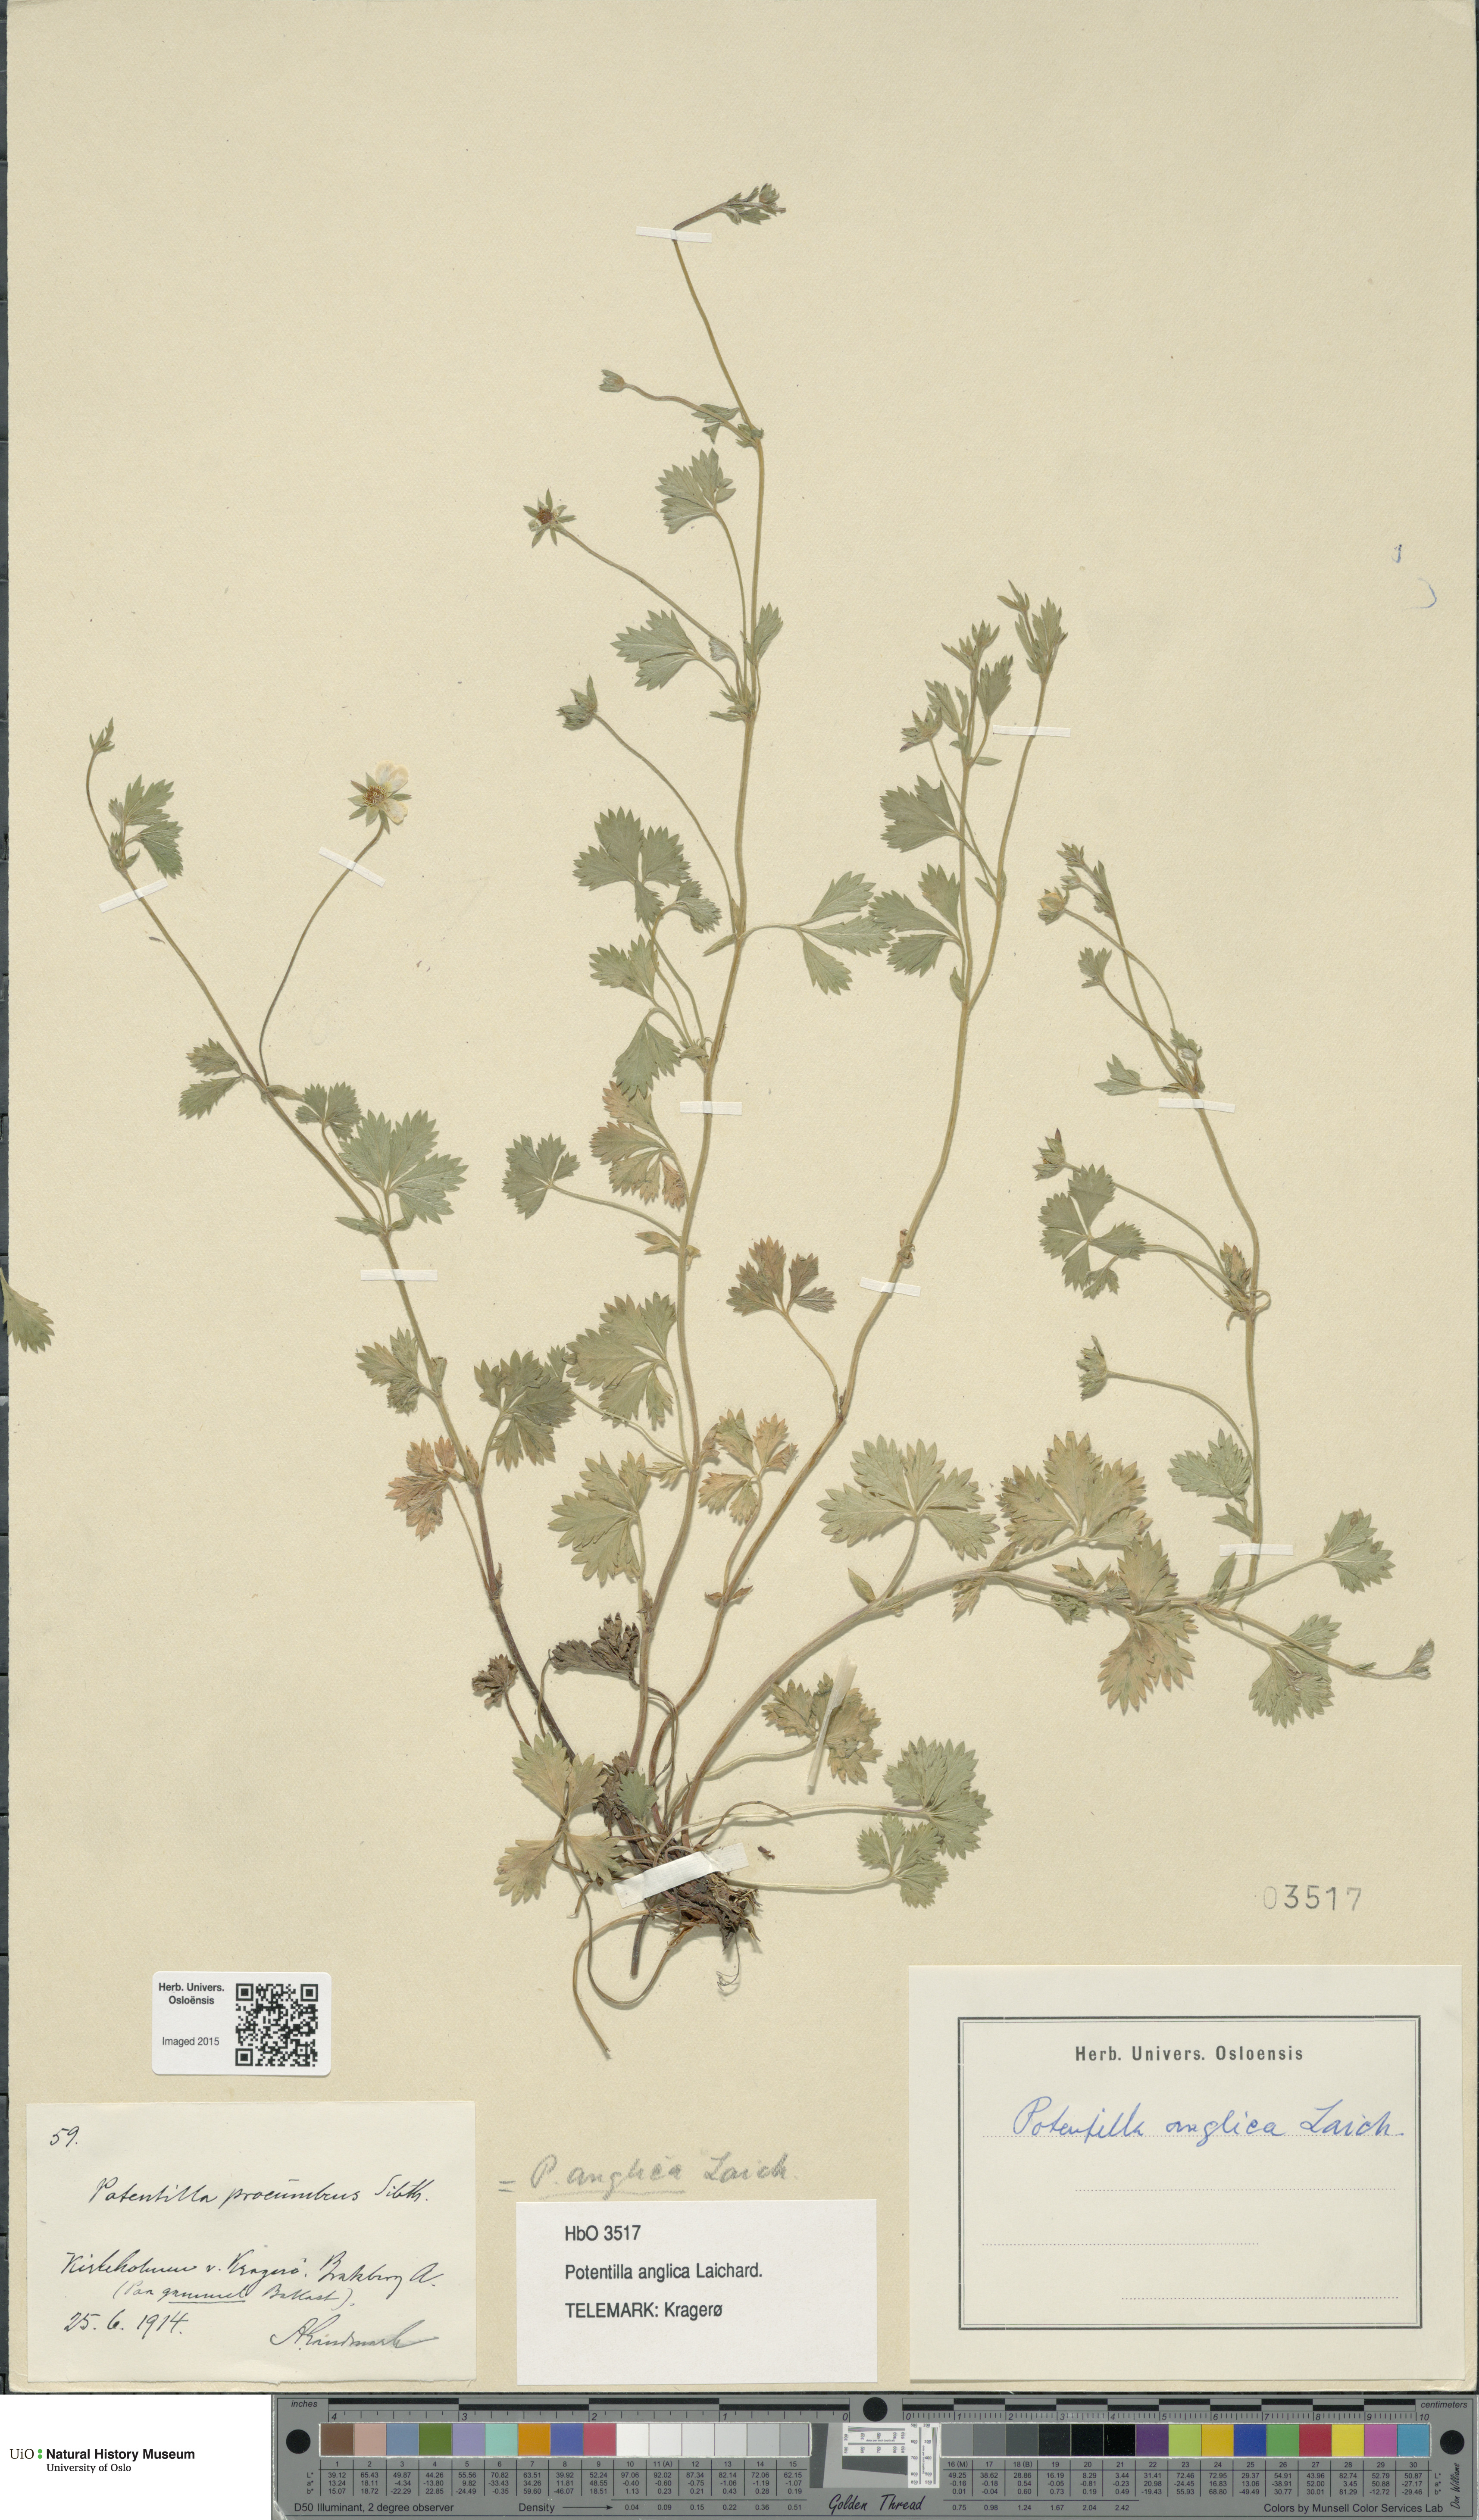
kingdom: Plantae
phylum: Tracheophyta
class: Magnoliopsida
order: Rosales
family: Rosaceae
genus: Potentilla
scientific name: Potentilla anglica
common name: Trailing tormentil
